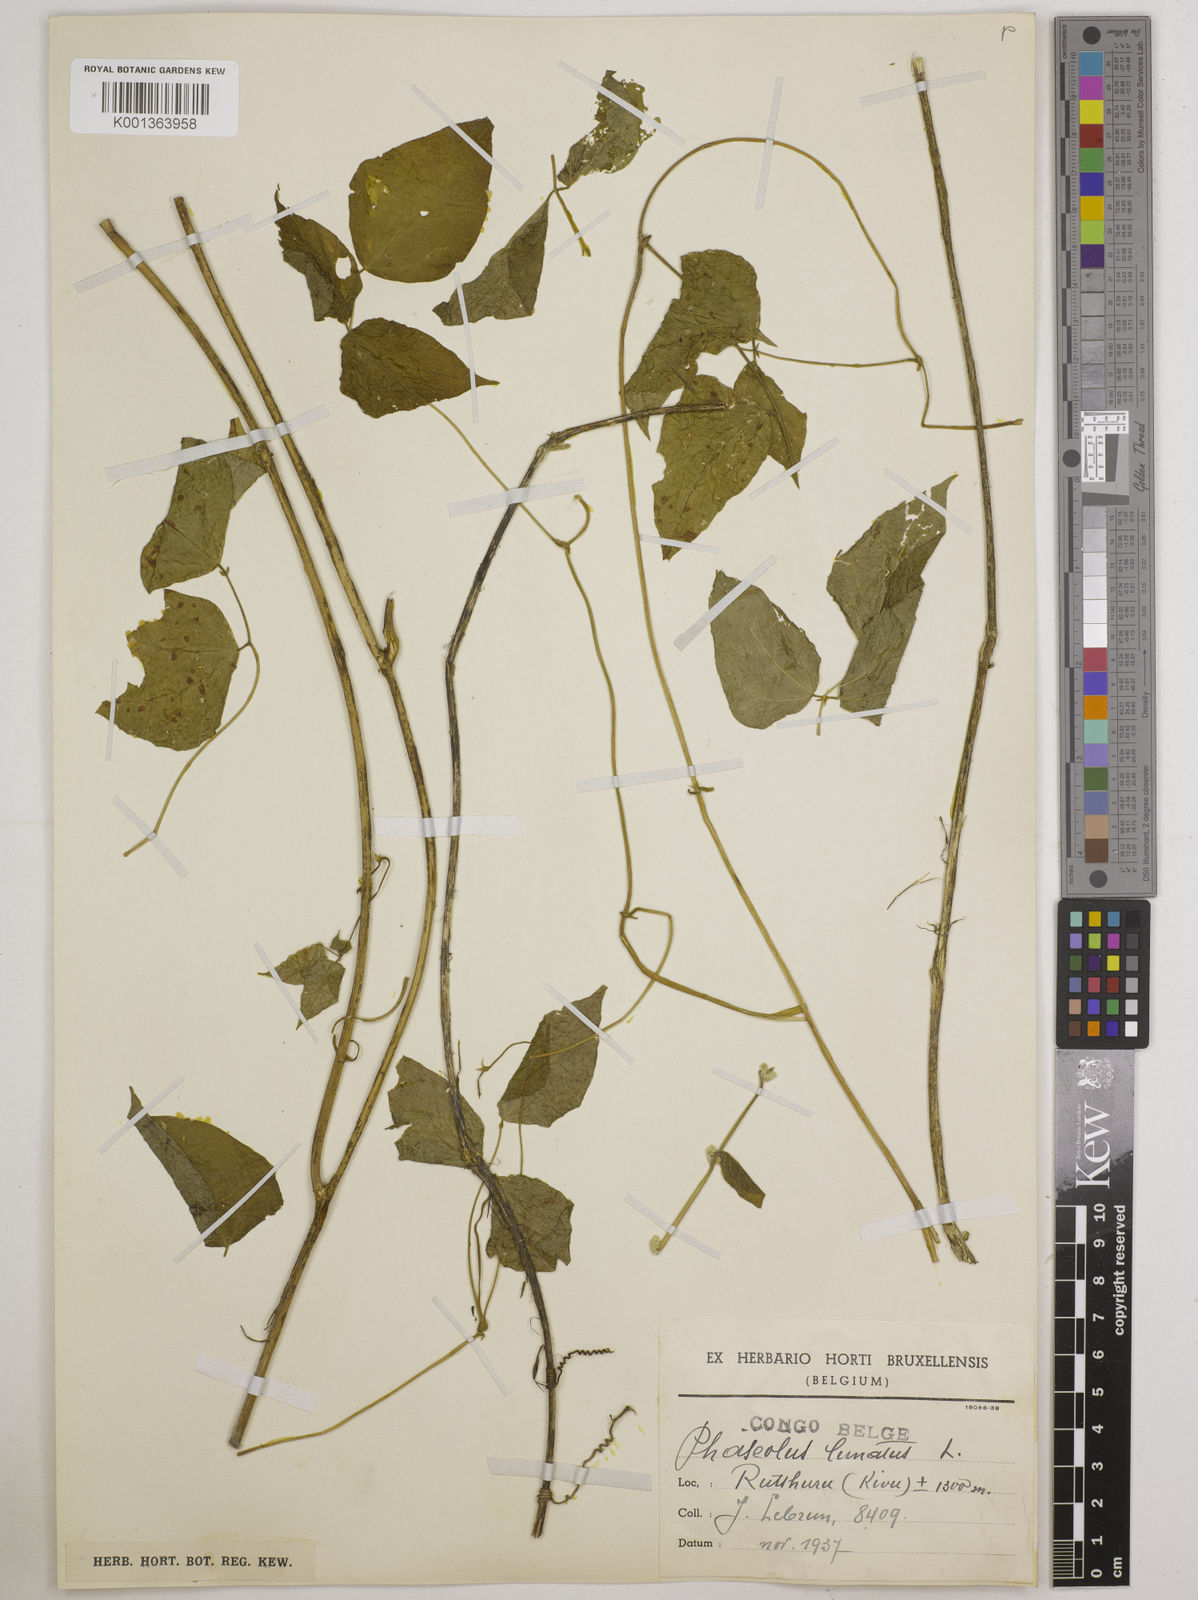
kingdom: Plantae
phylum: Tracheophyta
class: Magnoliopsida
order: Fabales
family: Fabaceae
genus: Phaseolus
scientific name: Phaseolus lunatus
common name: Sieva bean
